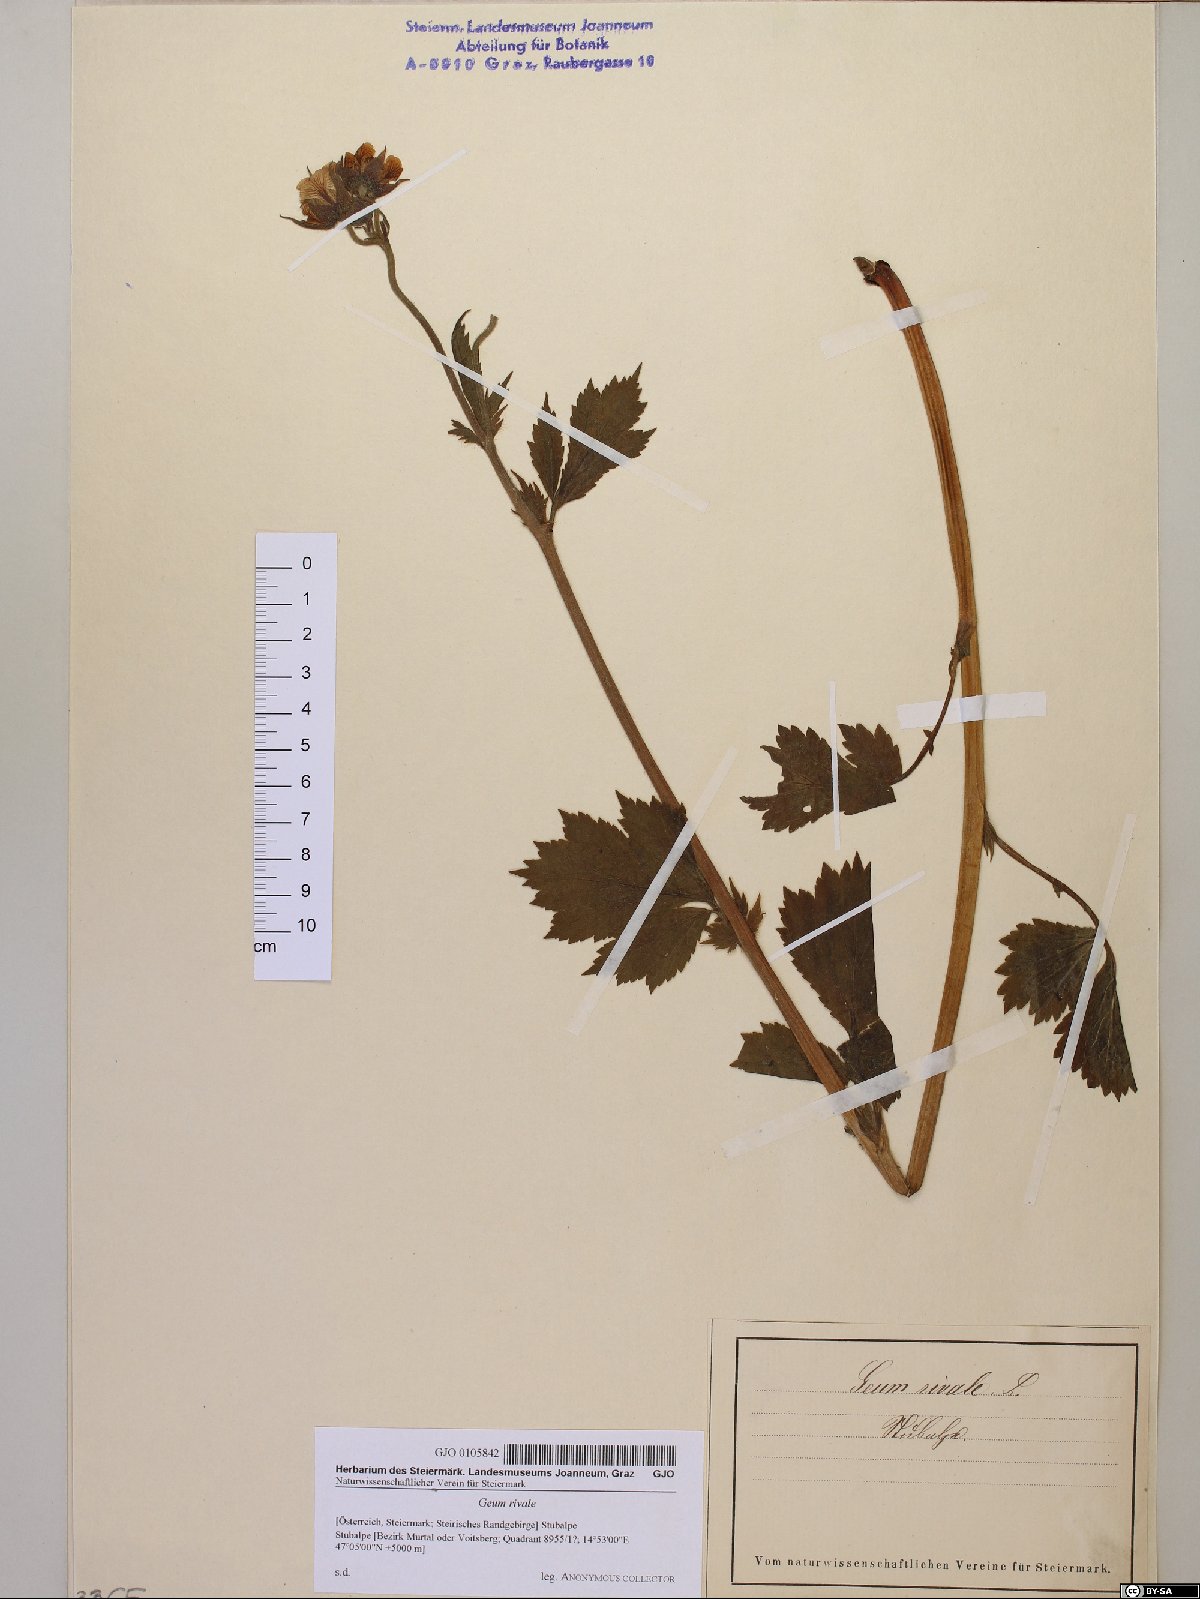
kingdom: Plantae
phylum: Tracheophyta
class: Magnoliopsida
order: Rosales
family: Rosaceae
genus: Geum
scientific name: Geum rivale
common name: Water avens
